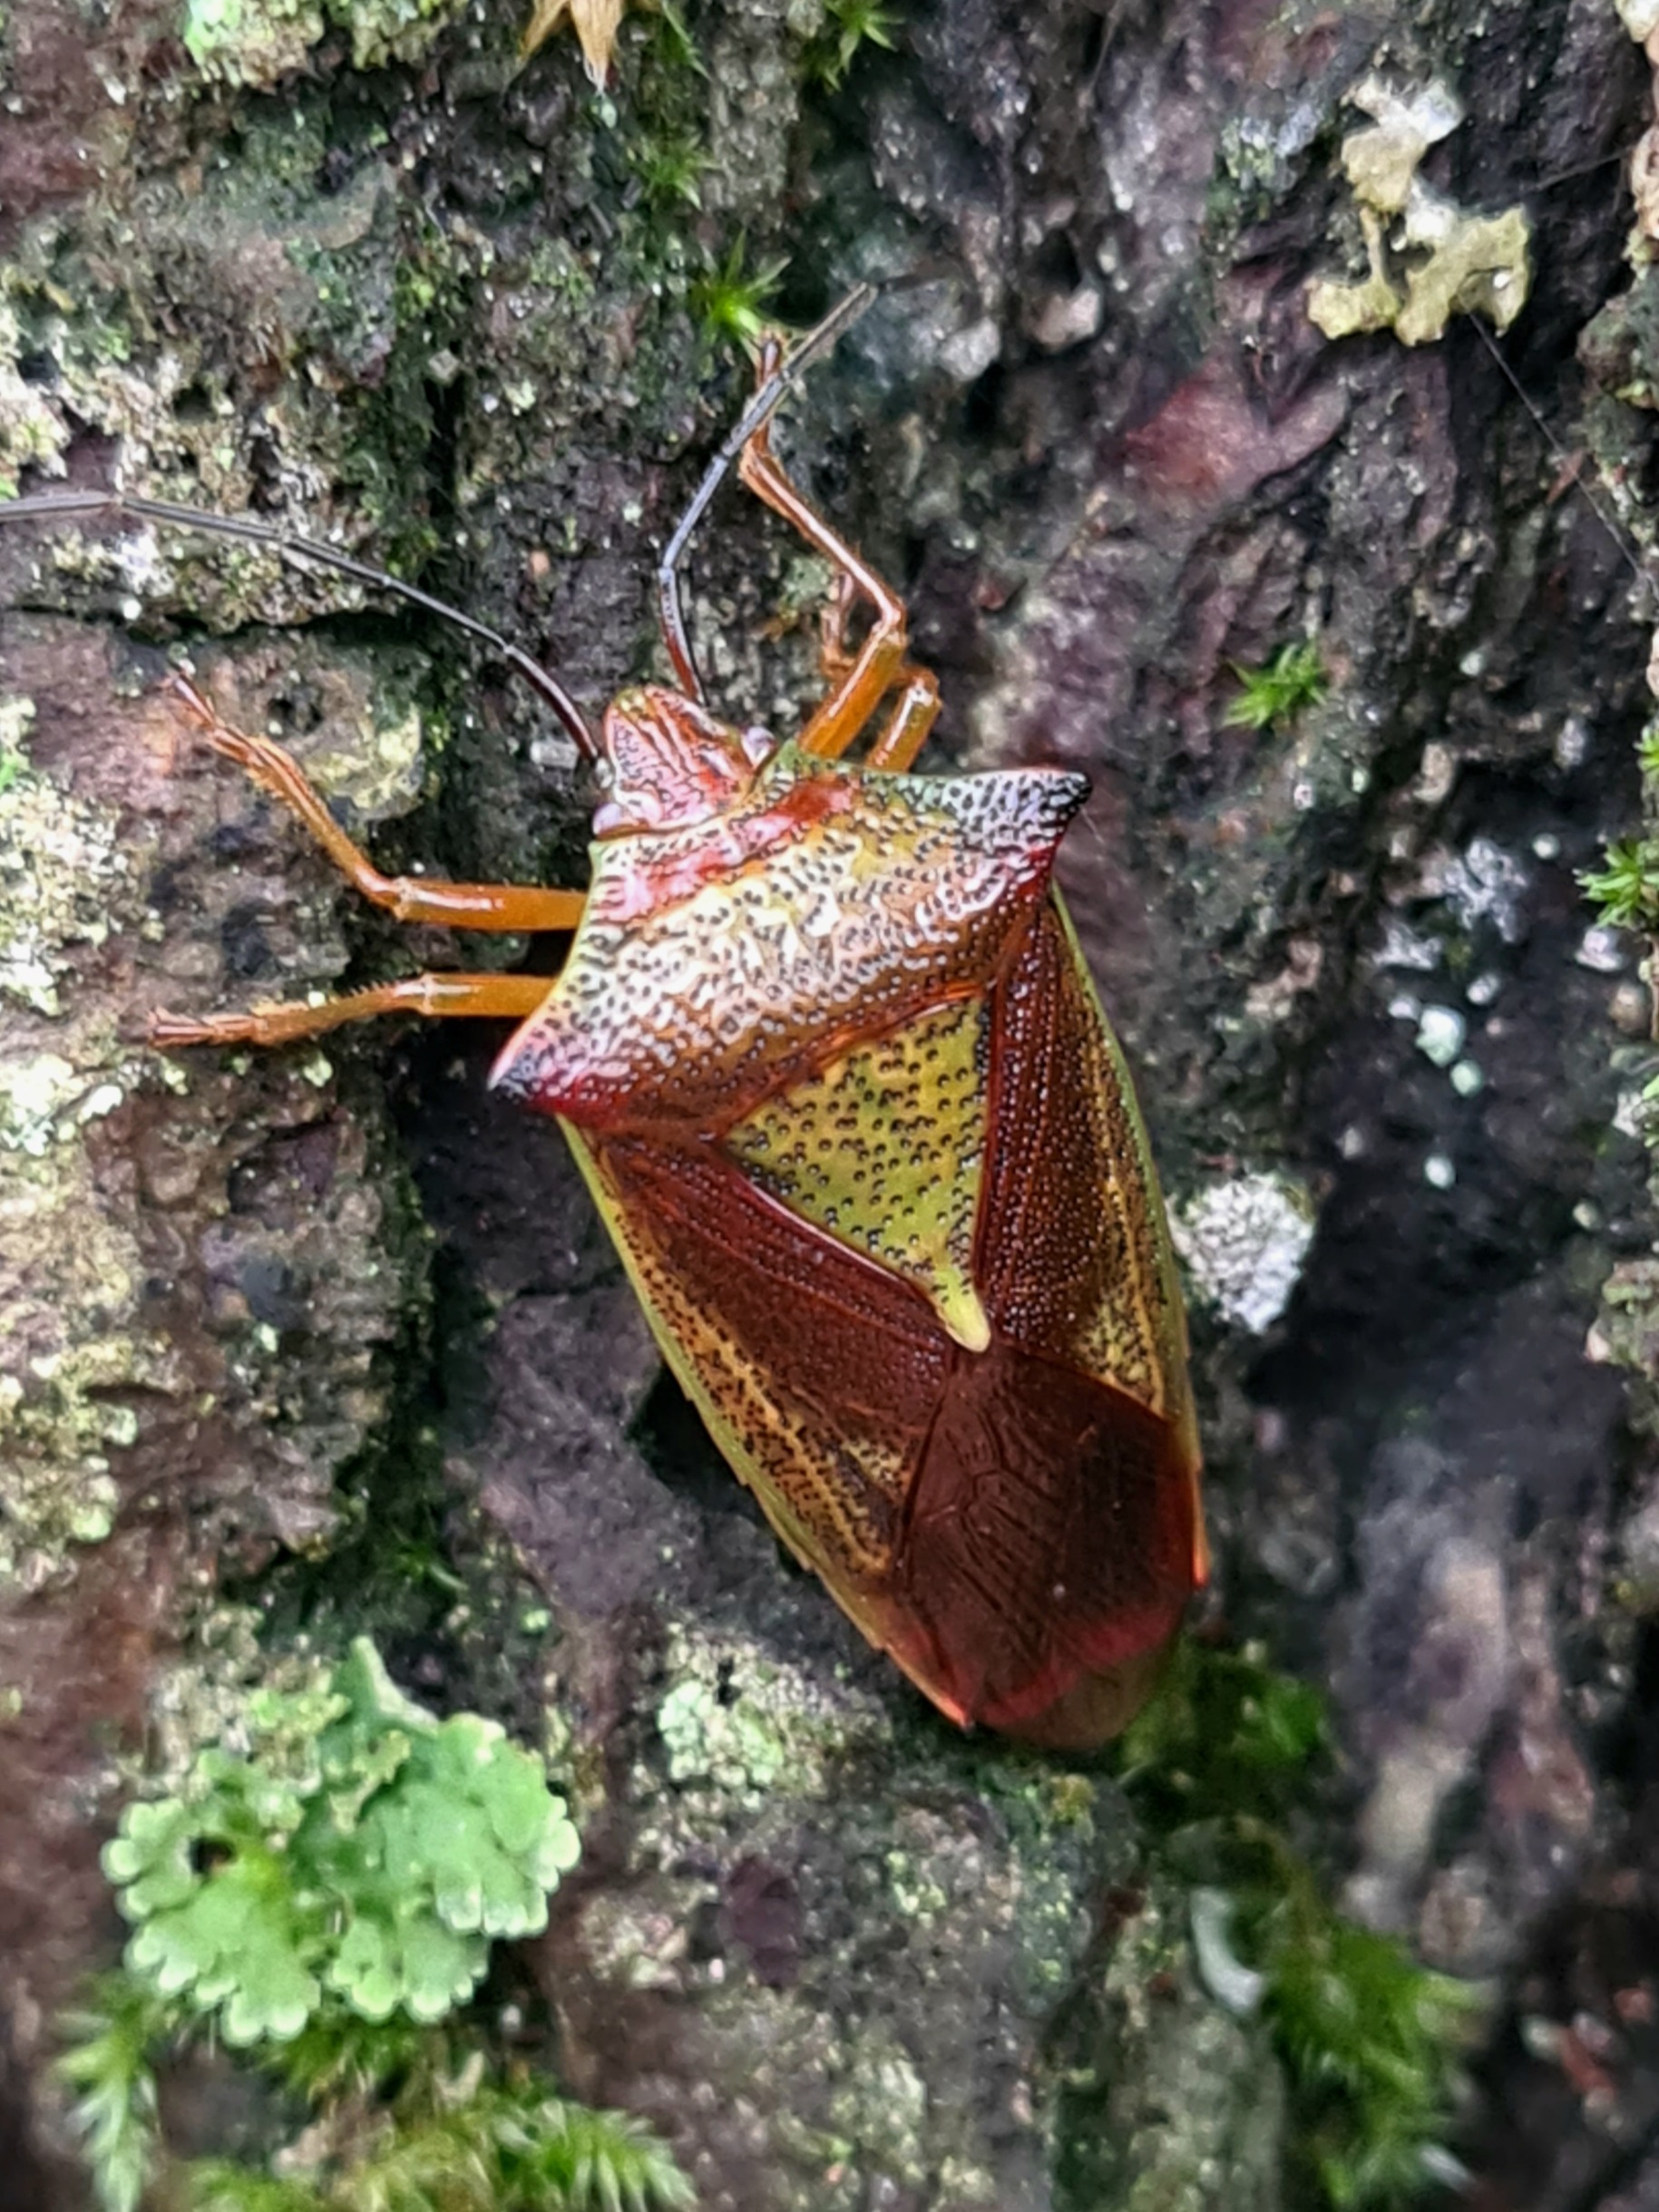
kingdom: Animalia
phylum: Arthropoda
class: Insecta
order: Hemiptera
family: Acanthosomatidae
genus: Acanthosoma
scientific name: Acanthosoma haemorrhoidale
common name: Stor løvtæge
